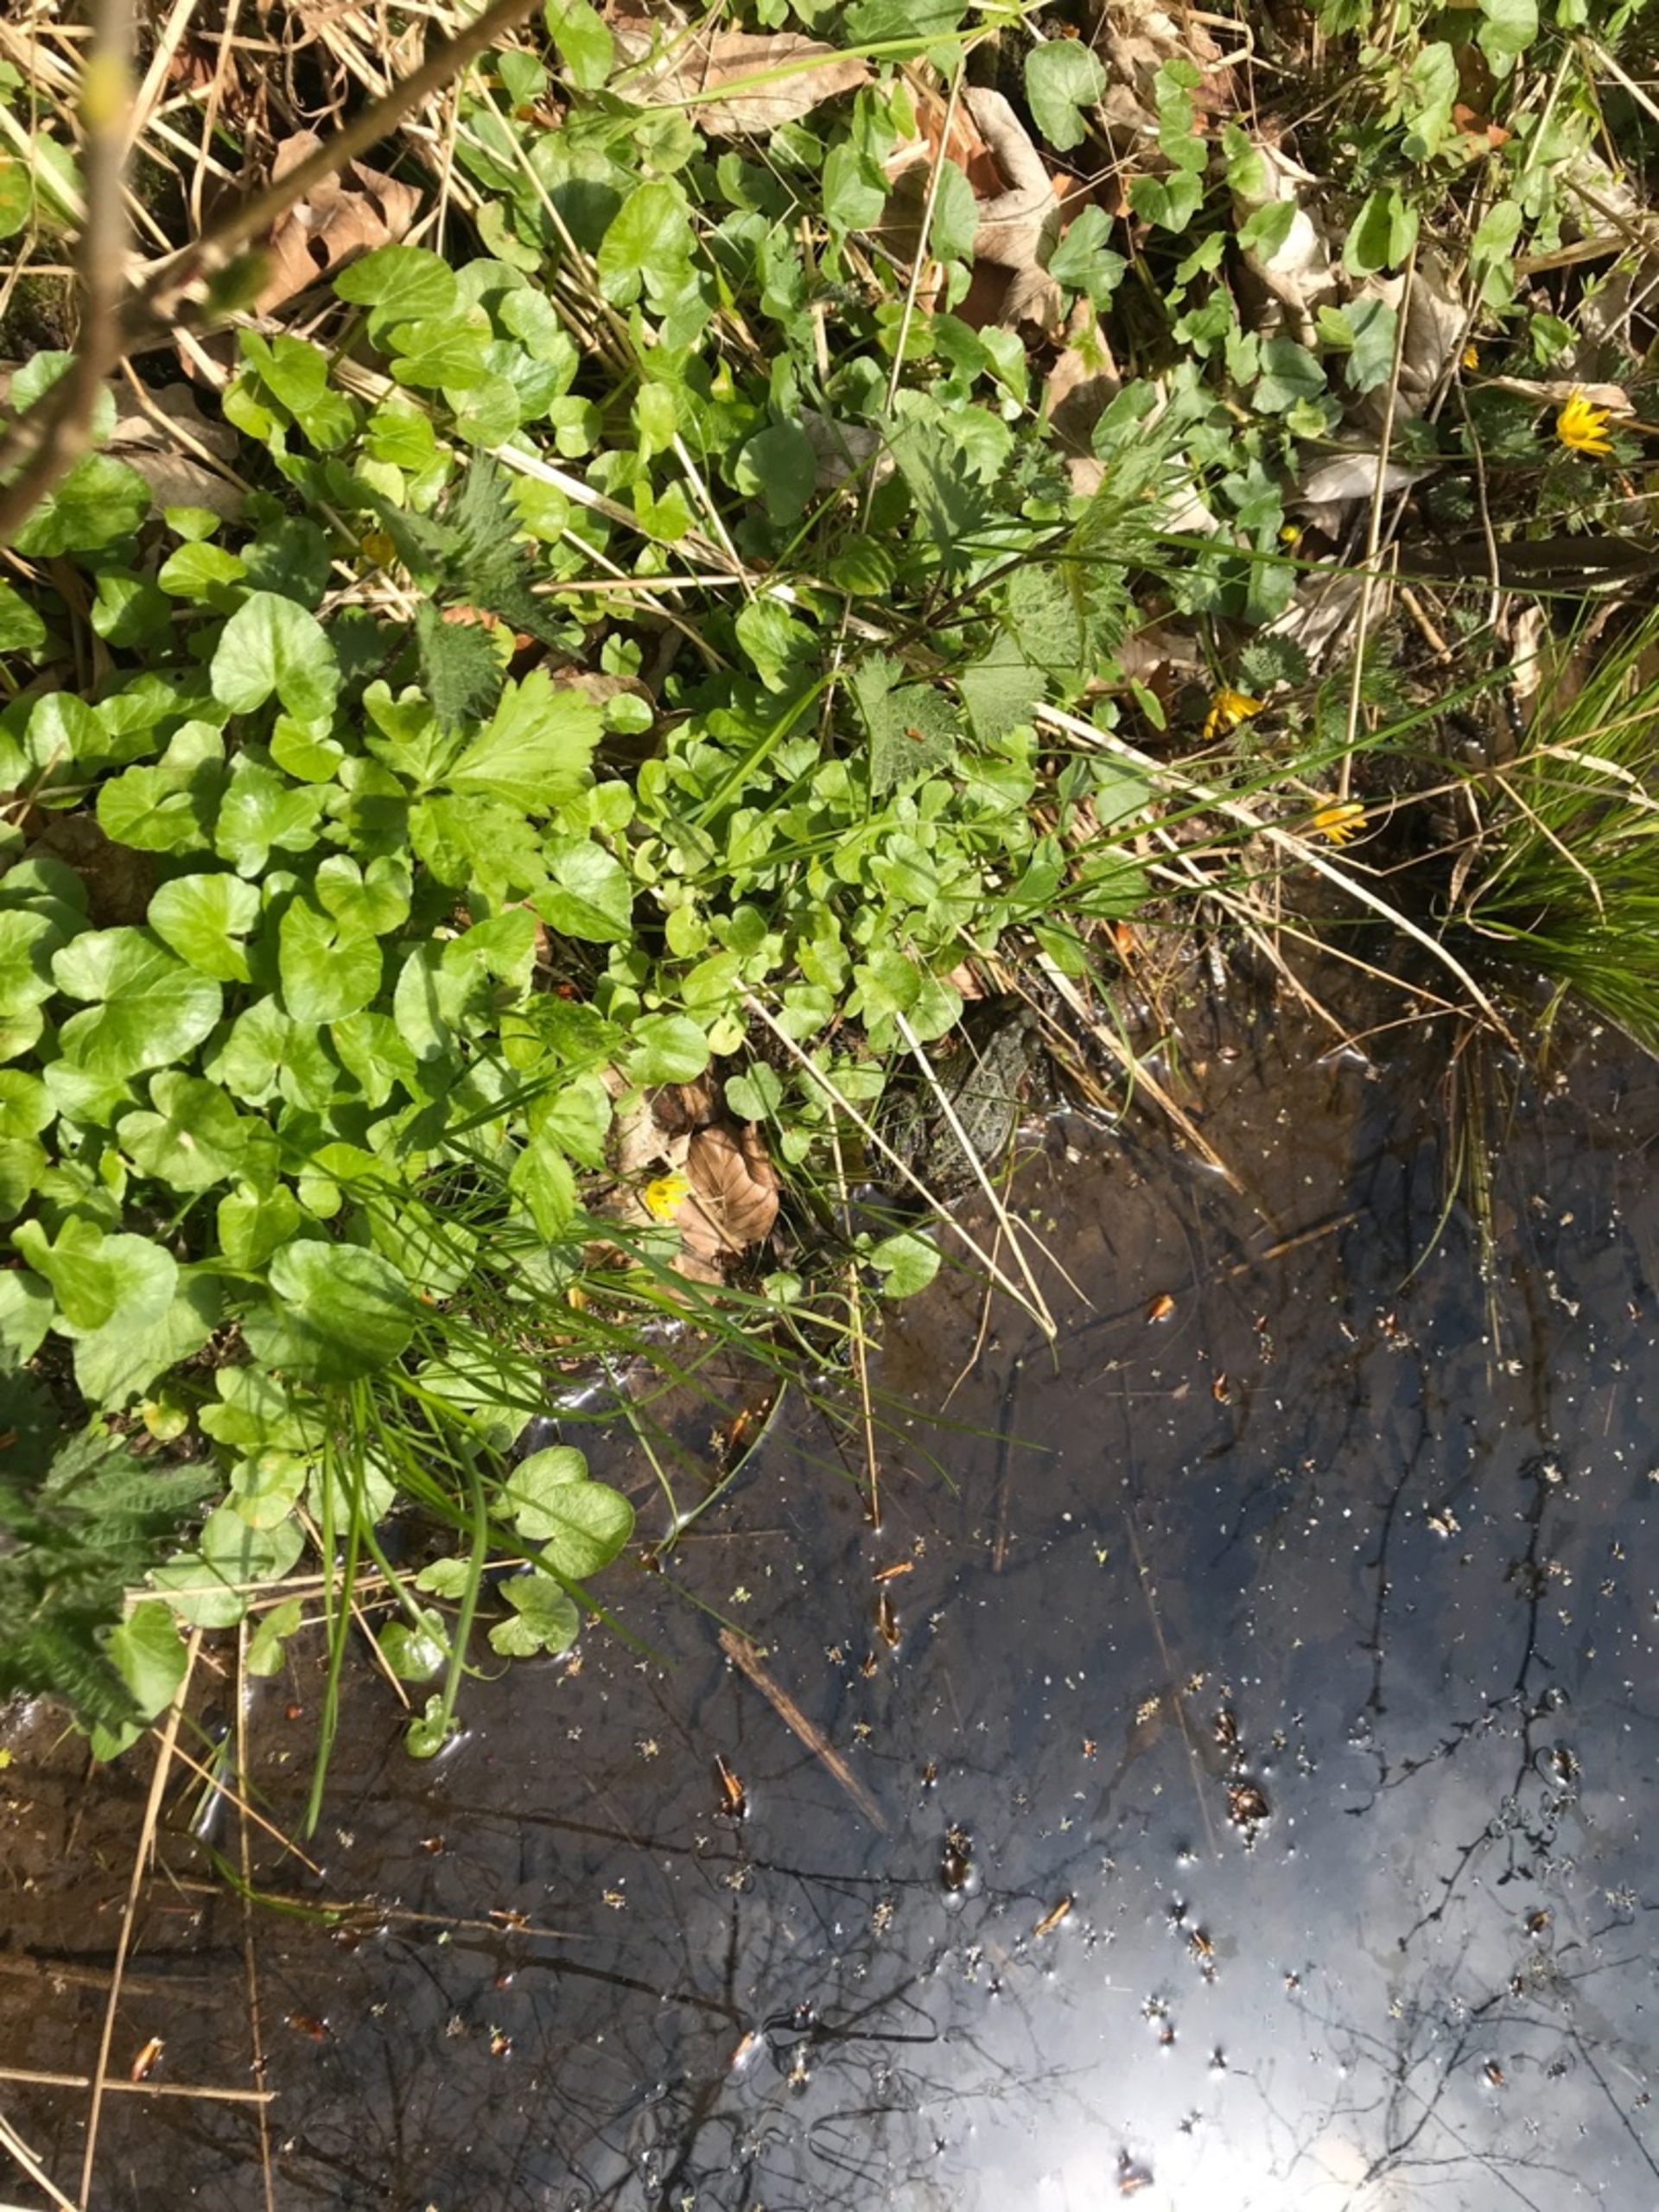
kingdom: Animalia
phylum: Chordata
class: Amphibia
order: Anura
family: Ranidae
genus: Pelophylax
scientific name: Pelophylax lessonae
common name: Grøn frø
